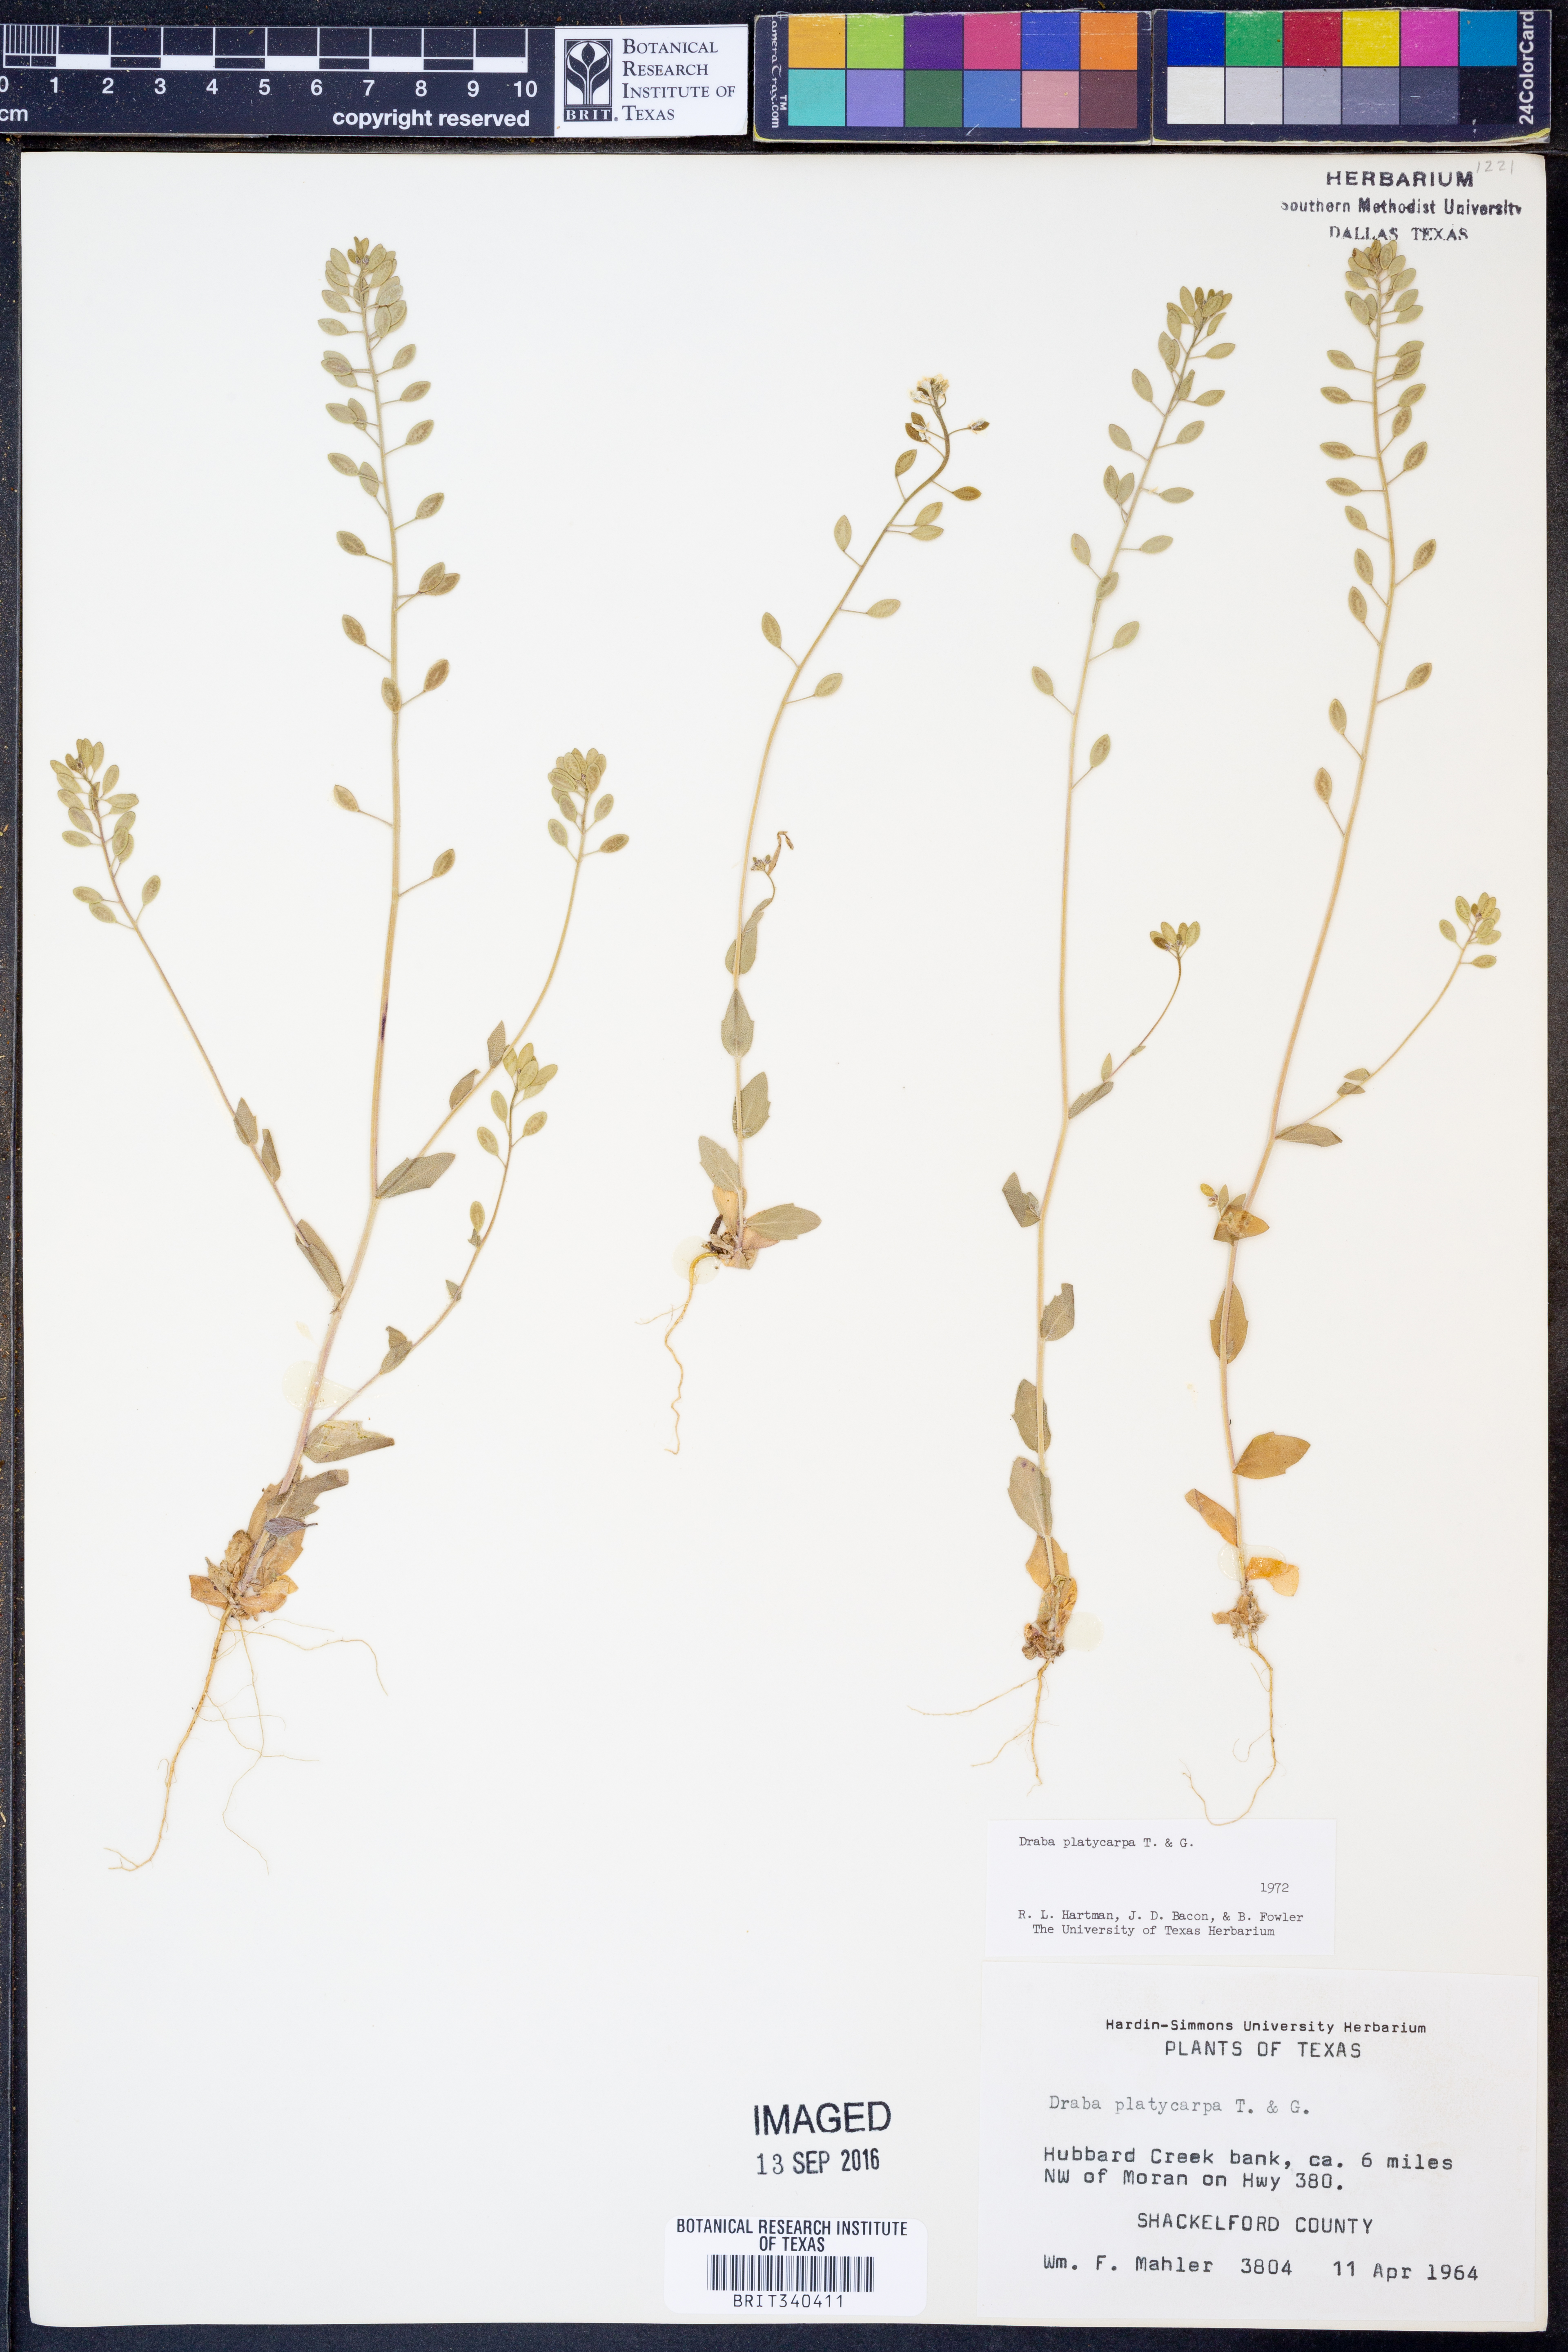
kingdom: Plantae
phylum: Tracheophyta
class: Magnoliopsida
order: Brassicales
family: Brassicaceae
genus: Tomostima
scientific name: Tomostima platycarpa
